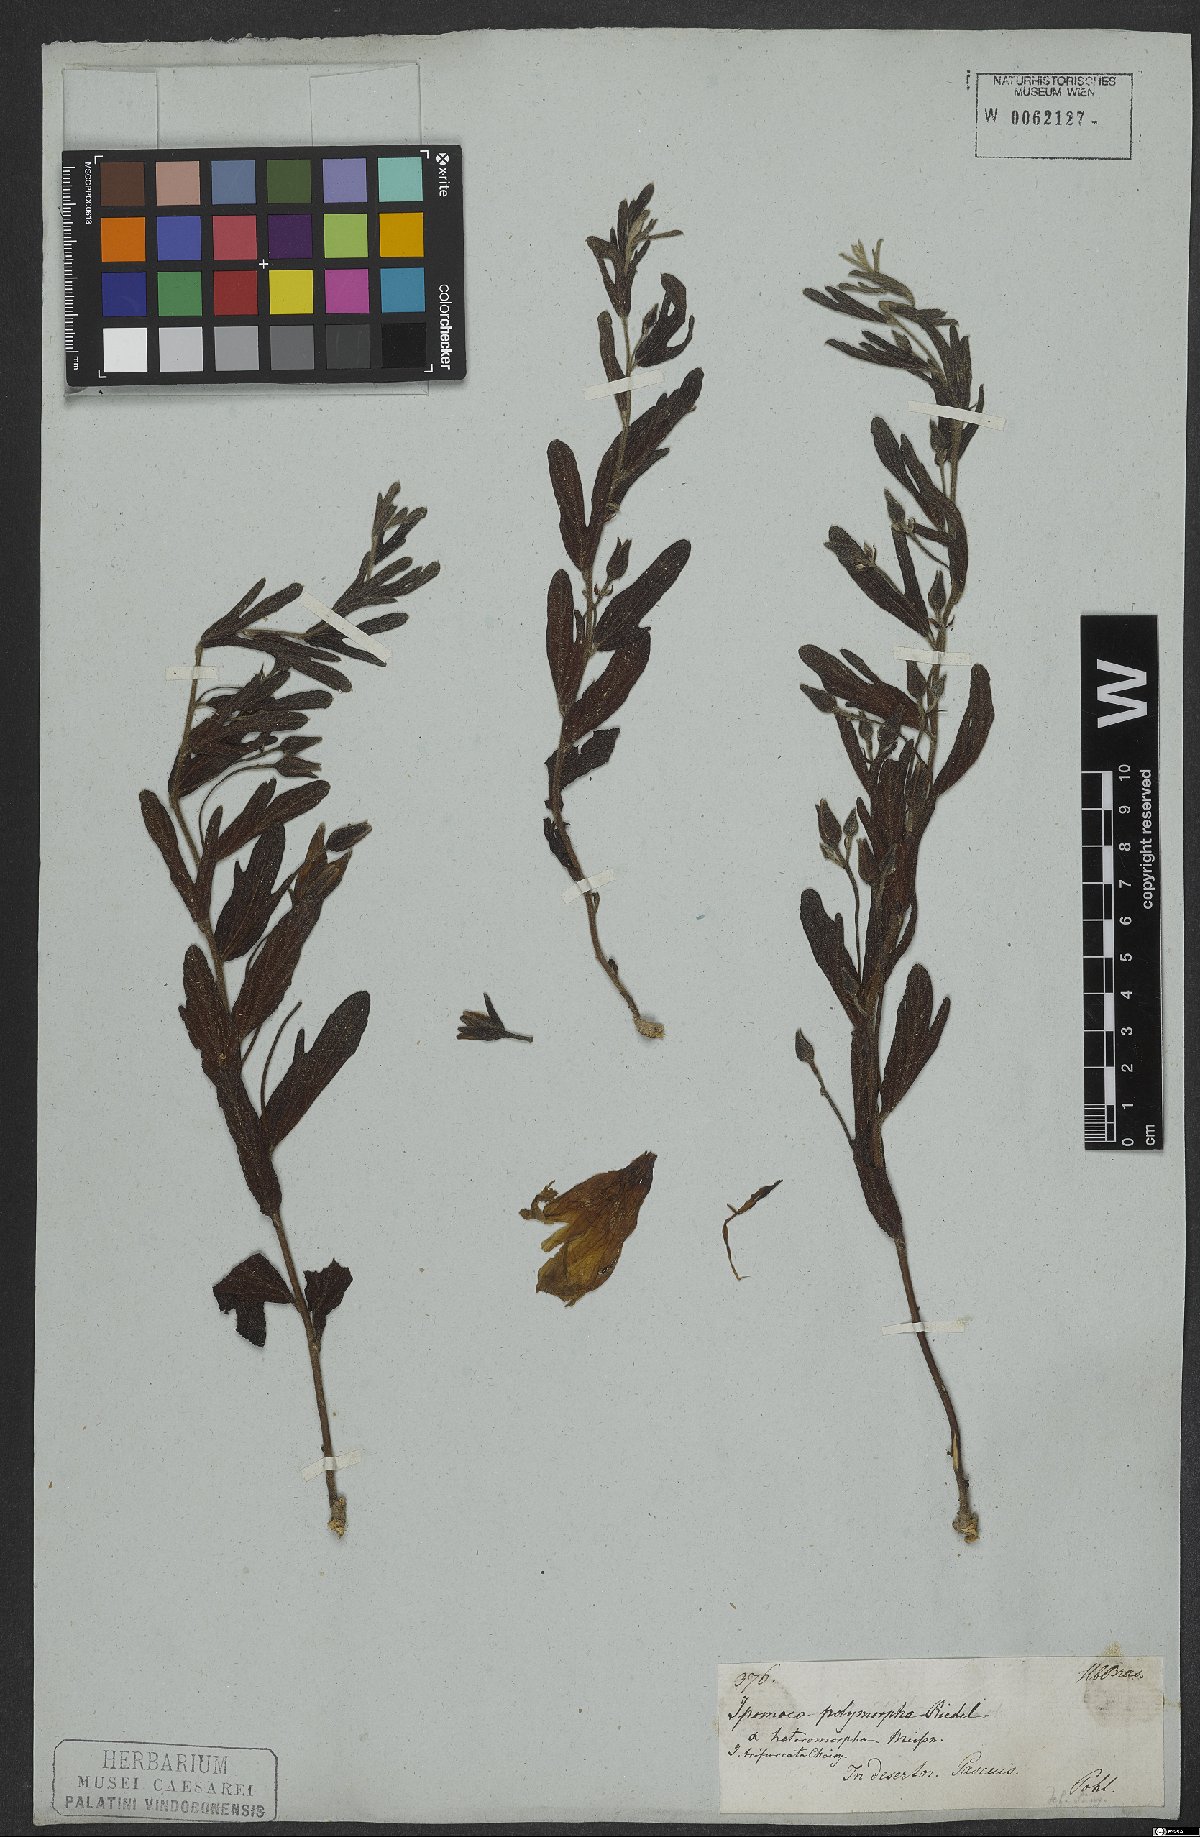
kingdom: Plantae
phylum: Tracheophyta
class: Magnoliopsida
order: Solanales
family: Convolvulaceae
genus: Ipomoea
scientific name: Ipomoea polymorpha
